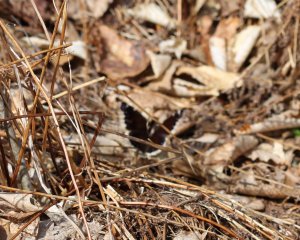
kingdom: Animalia
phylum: Arthropoda
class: Insecta
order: Lepidoptera
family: Nymphalidae
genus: Nymphalis
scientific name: Nymphalis antiopa
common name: Mourning Cloak
